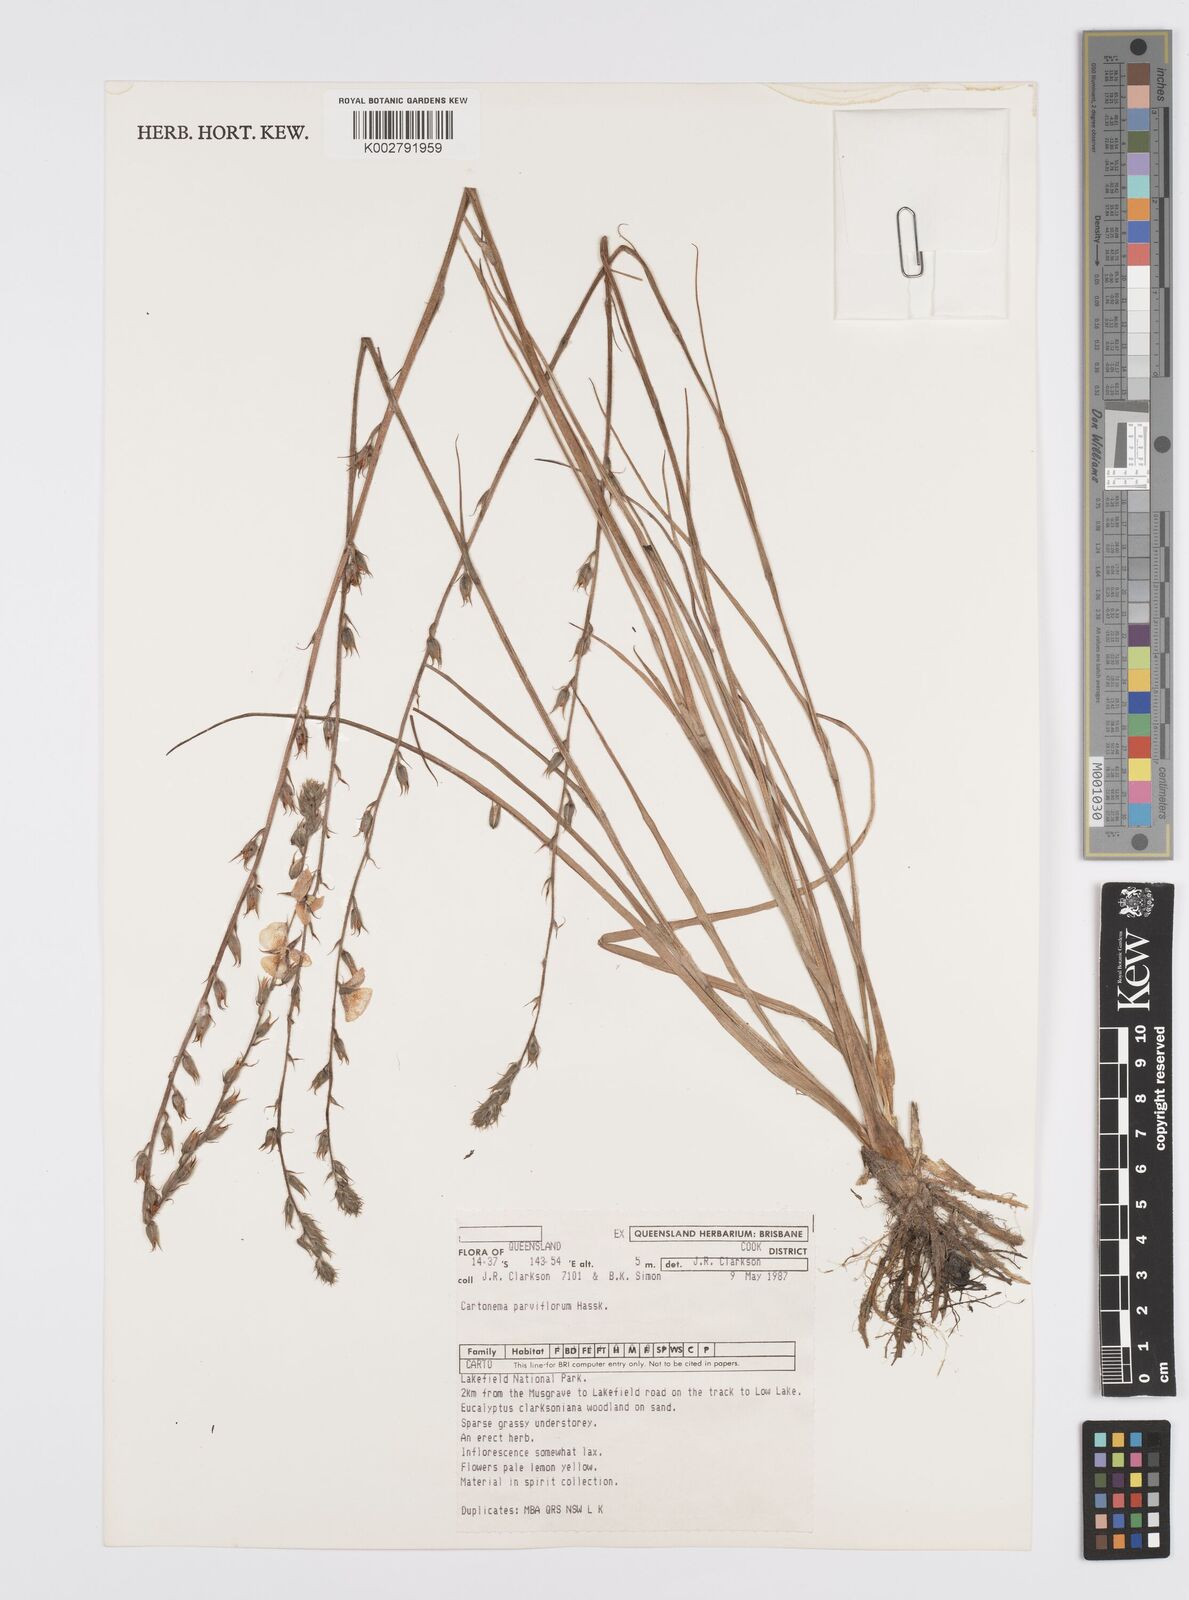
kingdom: Plantae
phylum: Tracheophyta
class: Liliopsida
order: Commelinales
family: Commelinaceae
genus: Cartonema
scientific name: Cartonema parviflorum
